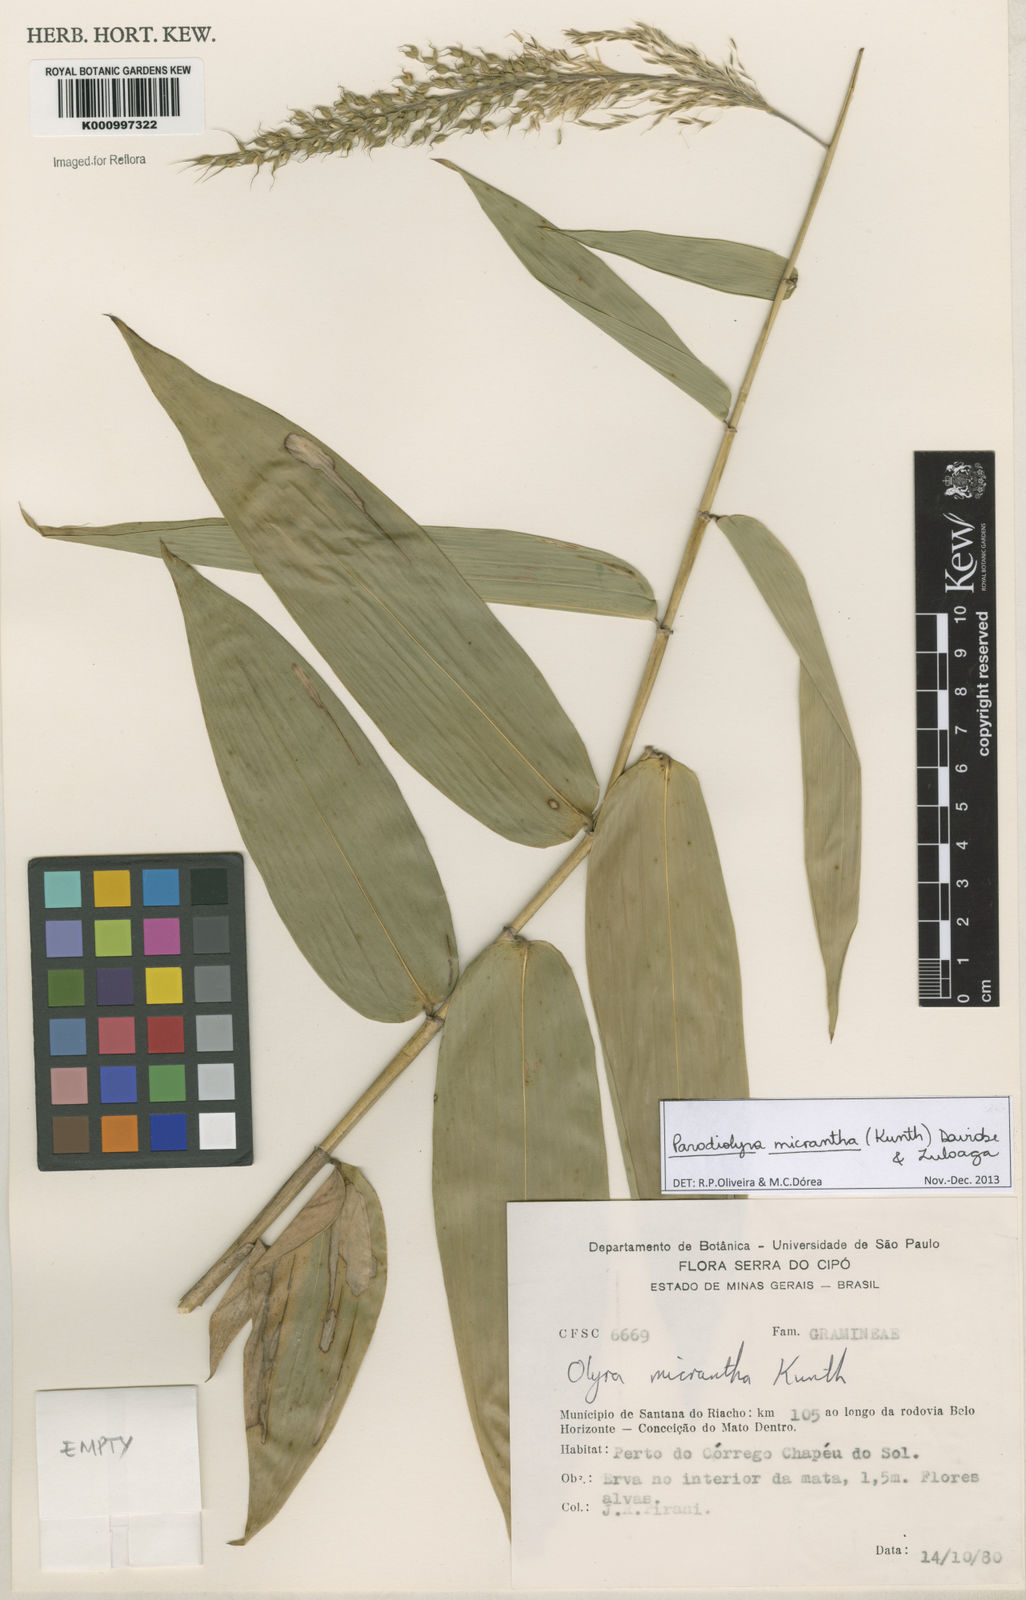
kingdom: Plantae
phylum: Tracheophyta
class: Liliopsida
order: Poales
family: Poaceae
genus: Taquara
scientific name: Taquara micrantha
